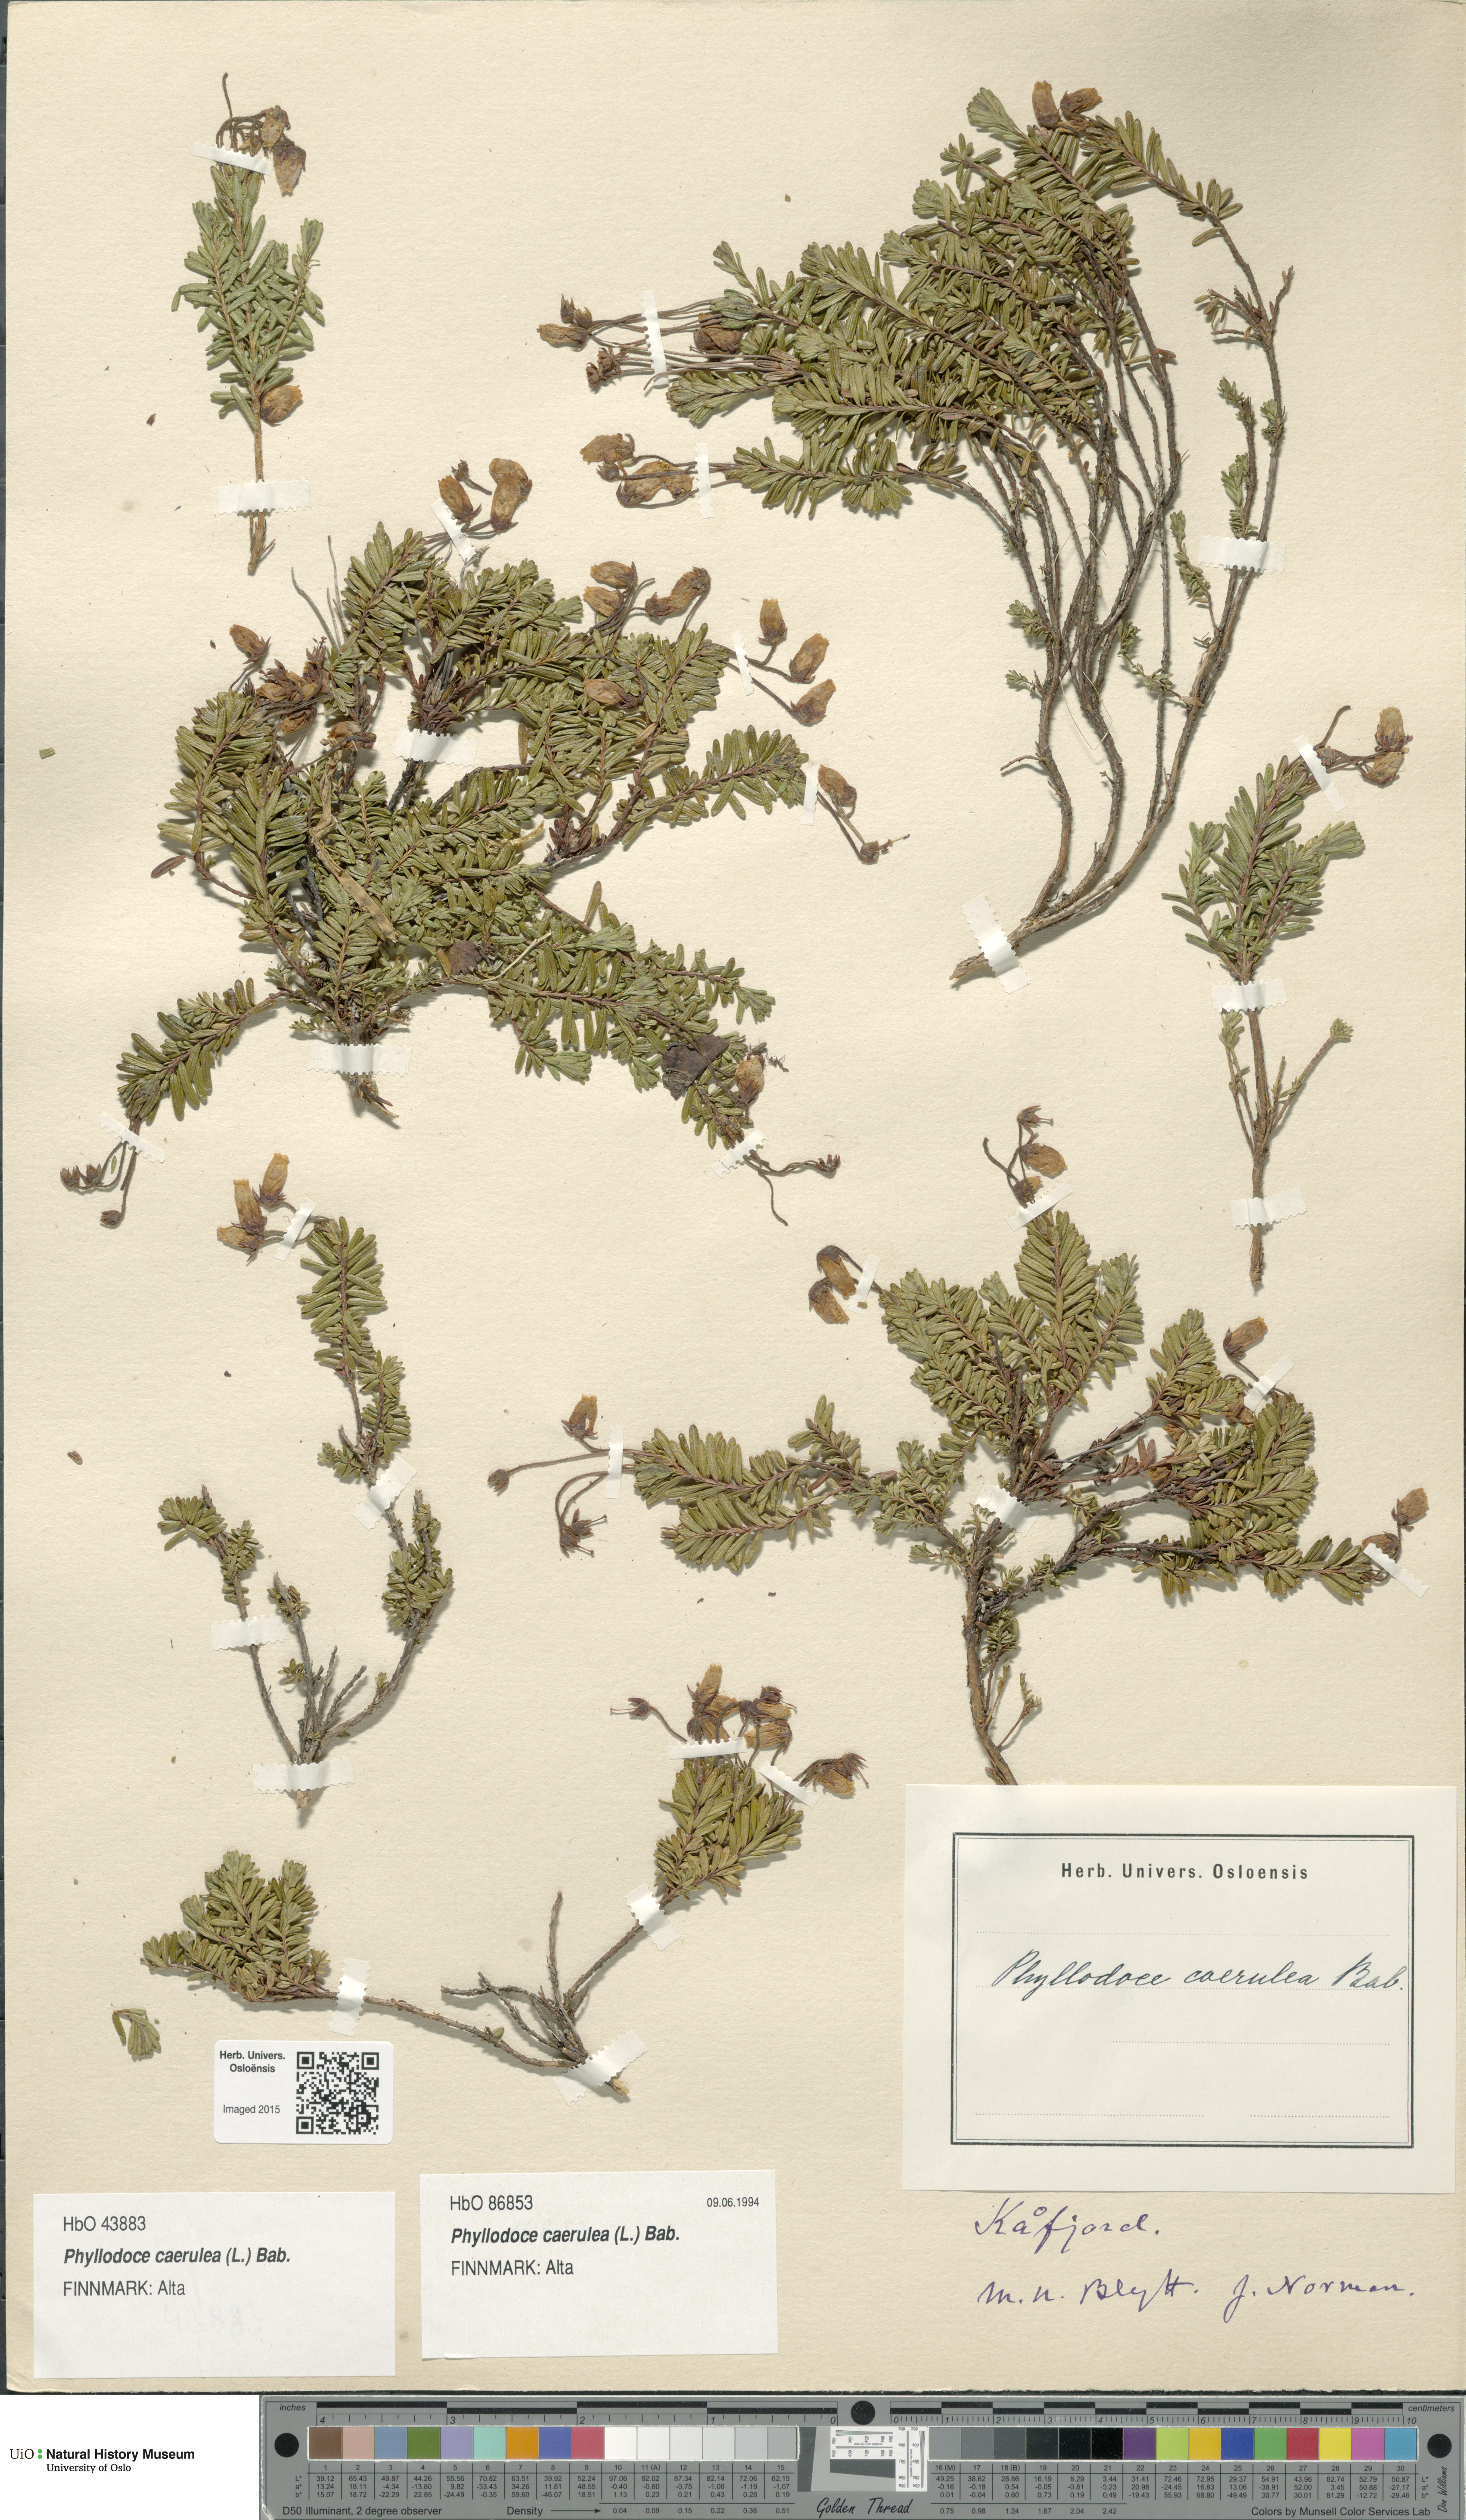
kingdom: Plantae
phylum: Tracheophyta
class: Magnoliopsida
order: Ericales
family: Ericaceae
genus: Phyllodoce
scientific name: Phyllodoce caerulea
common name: Blue heath
